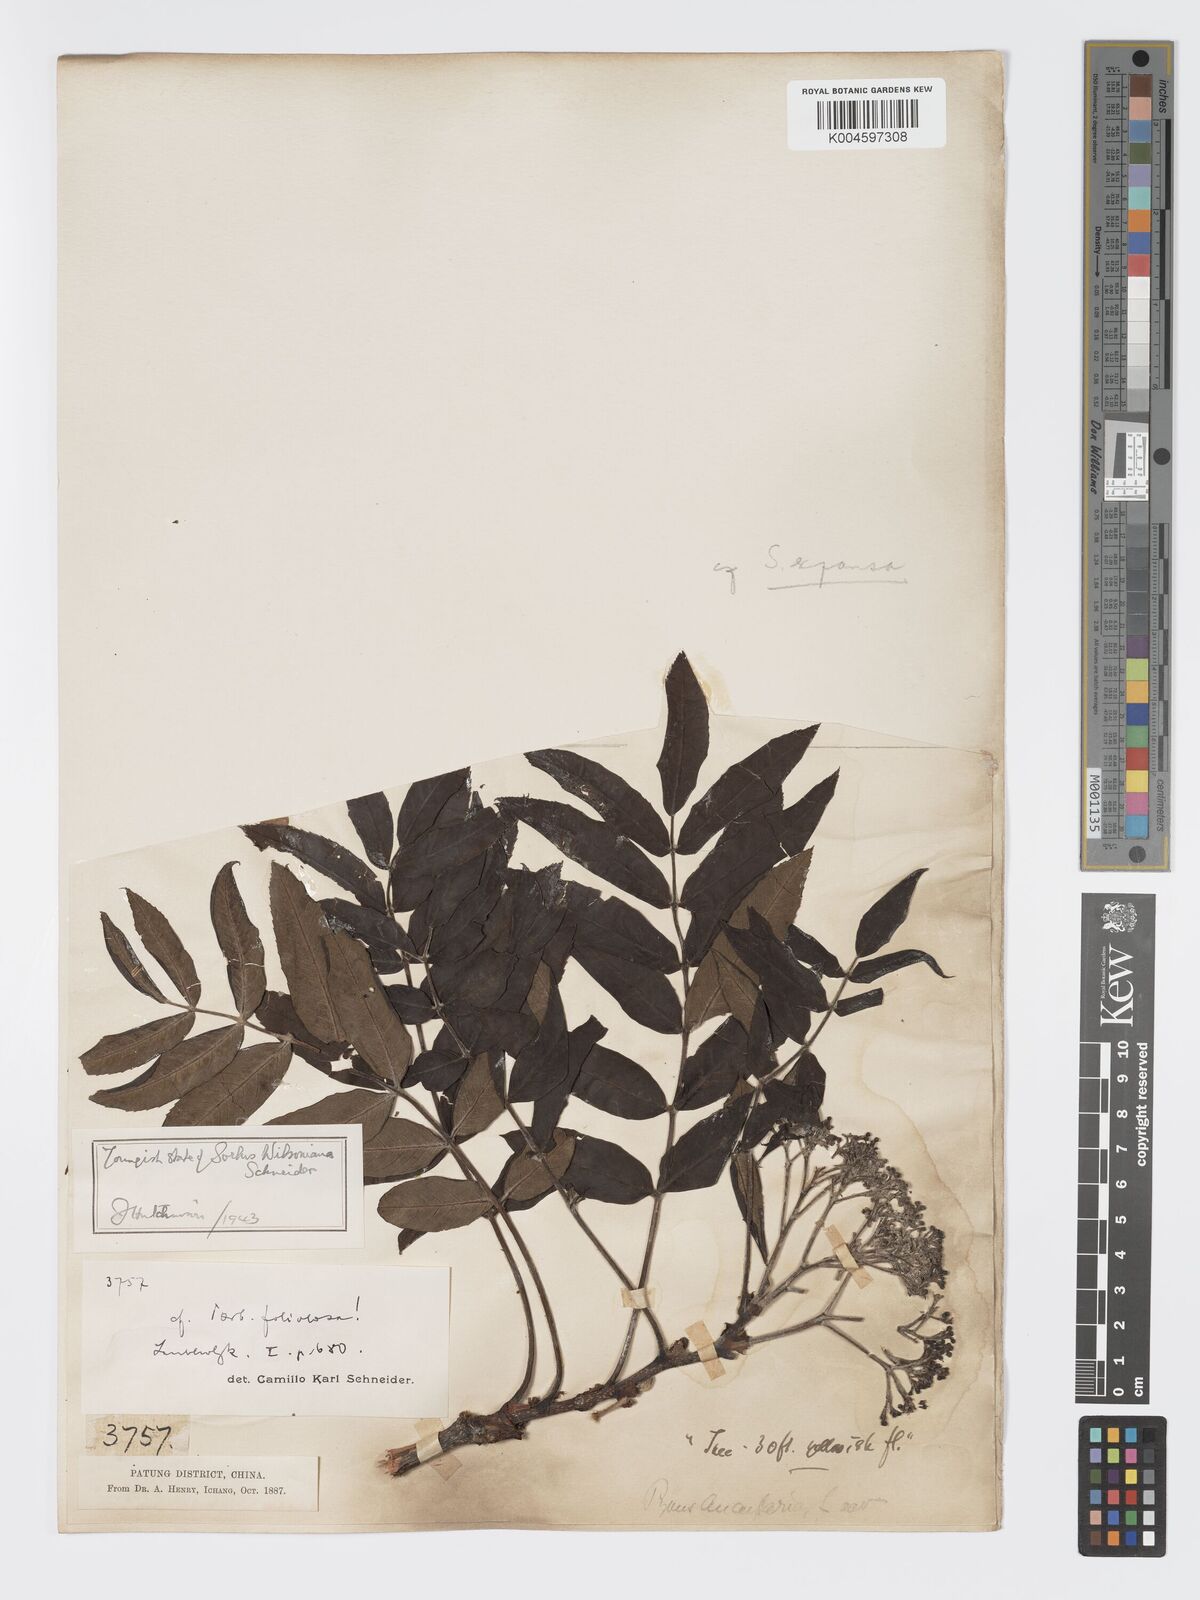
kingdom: Plantae
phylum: Tracheophyta
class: Magnoliopsida
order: Rosales
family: Rosaceae
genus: Sorbus
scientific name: Sorbus wilsoniana
